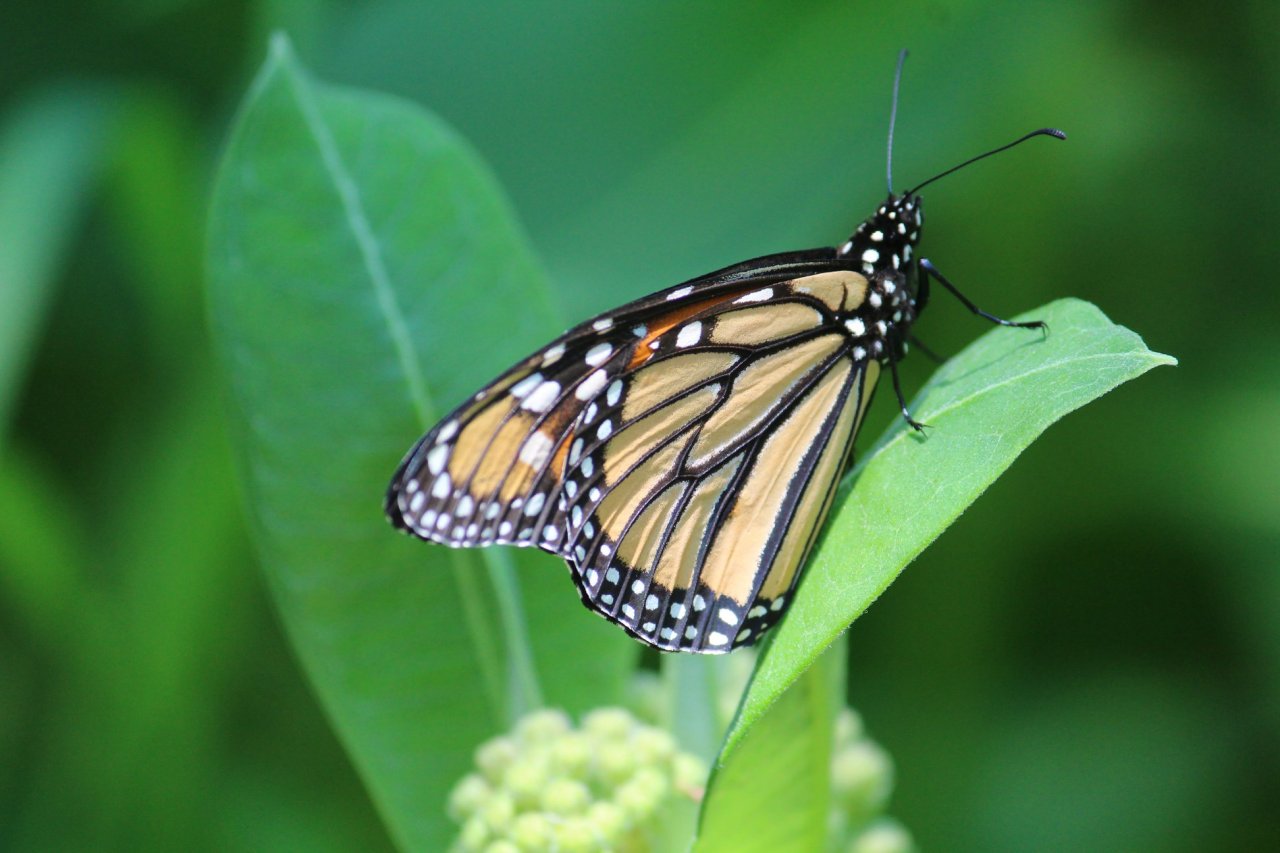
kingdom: Animalia
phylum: Arthropoda
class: Insecta
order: Lepidoptera
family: Nymphalidae
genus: Danaus
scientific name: Danaus plexippus
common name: Monarch
